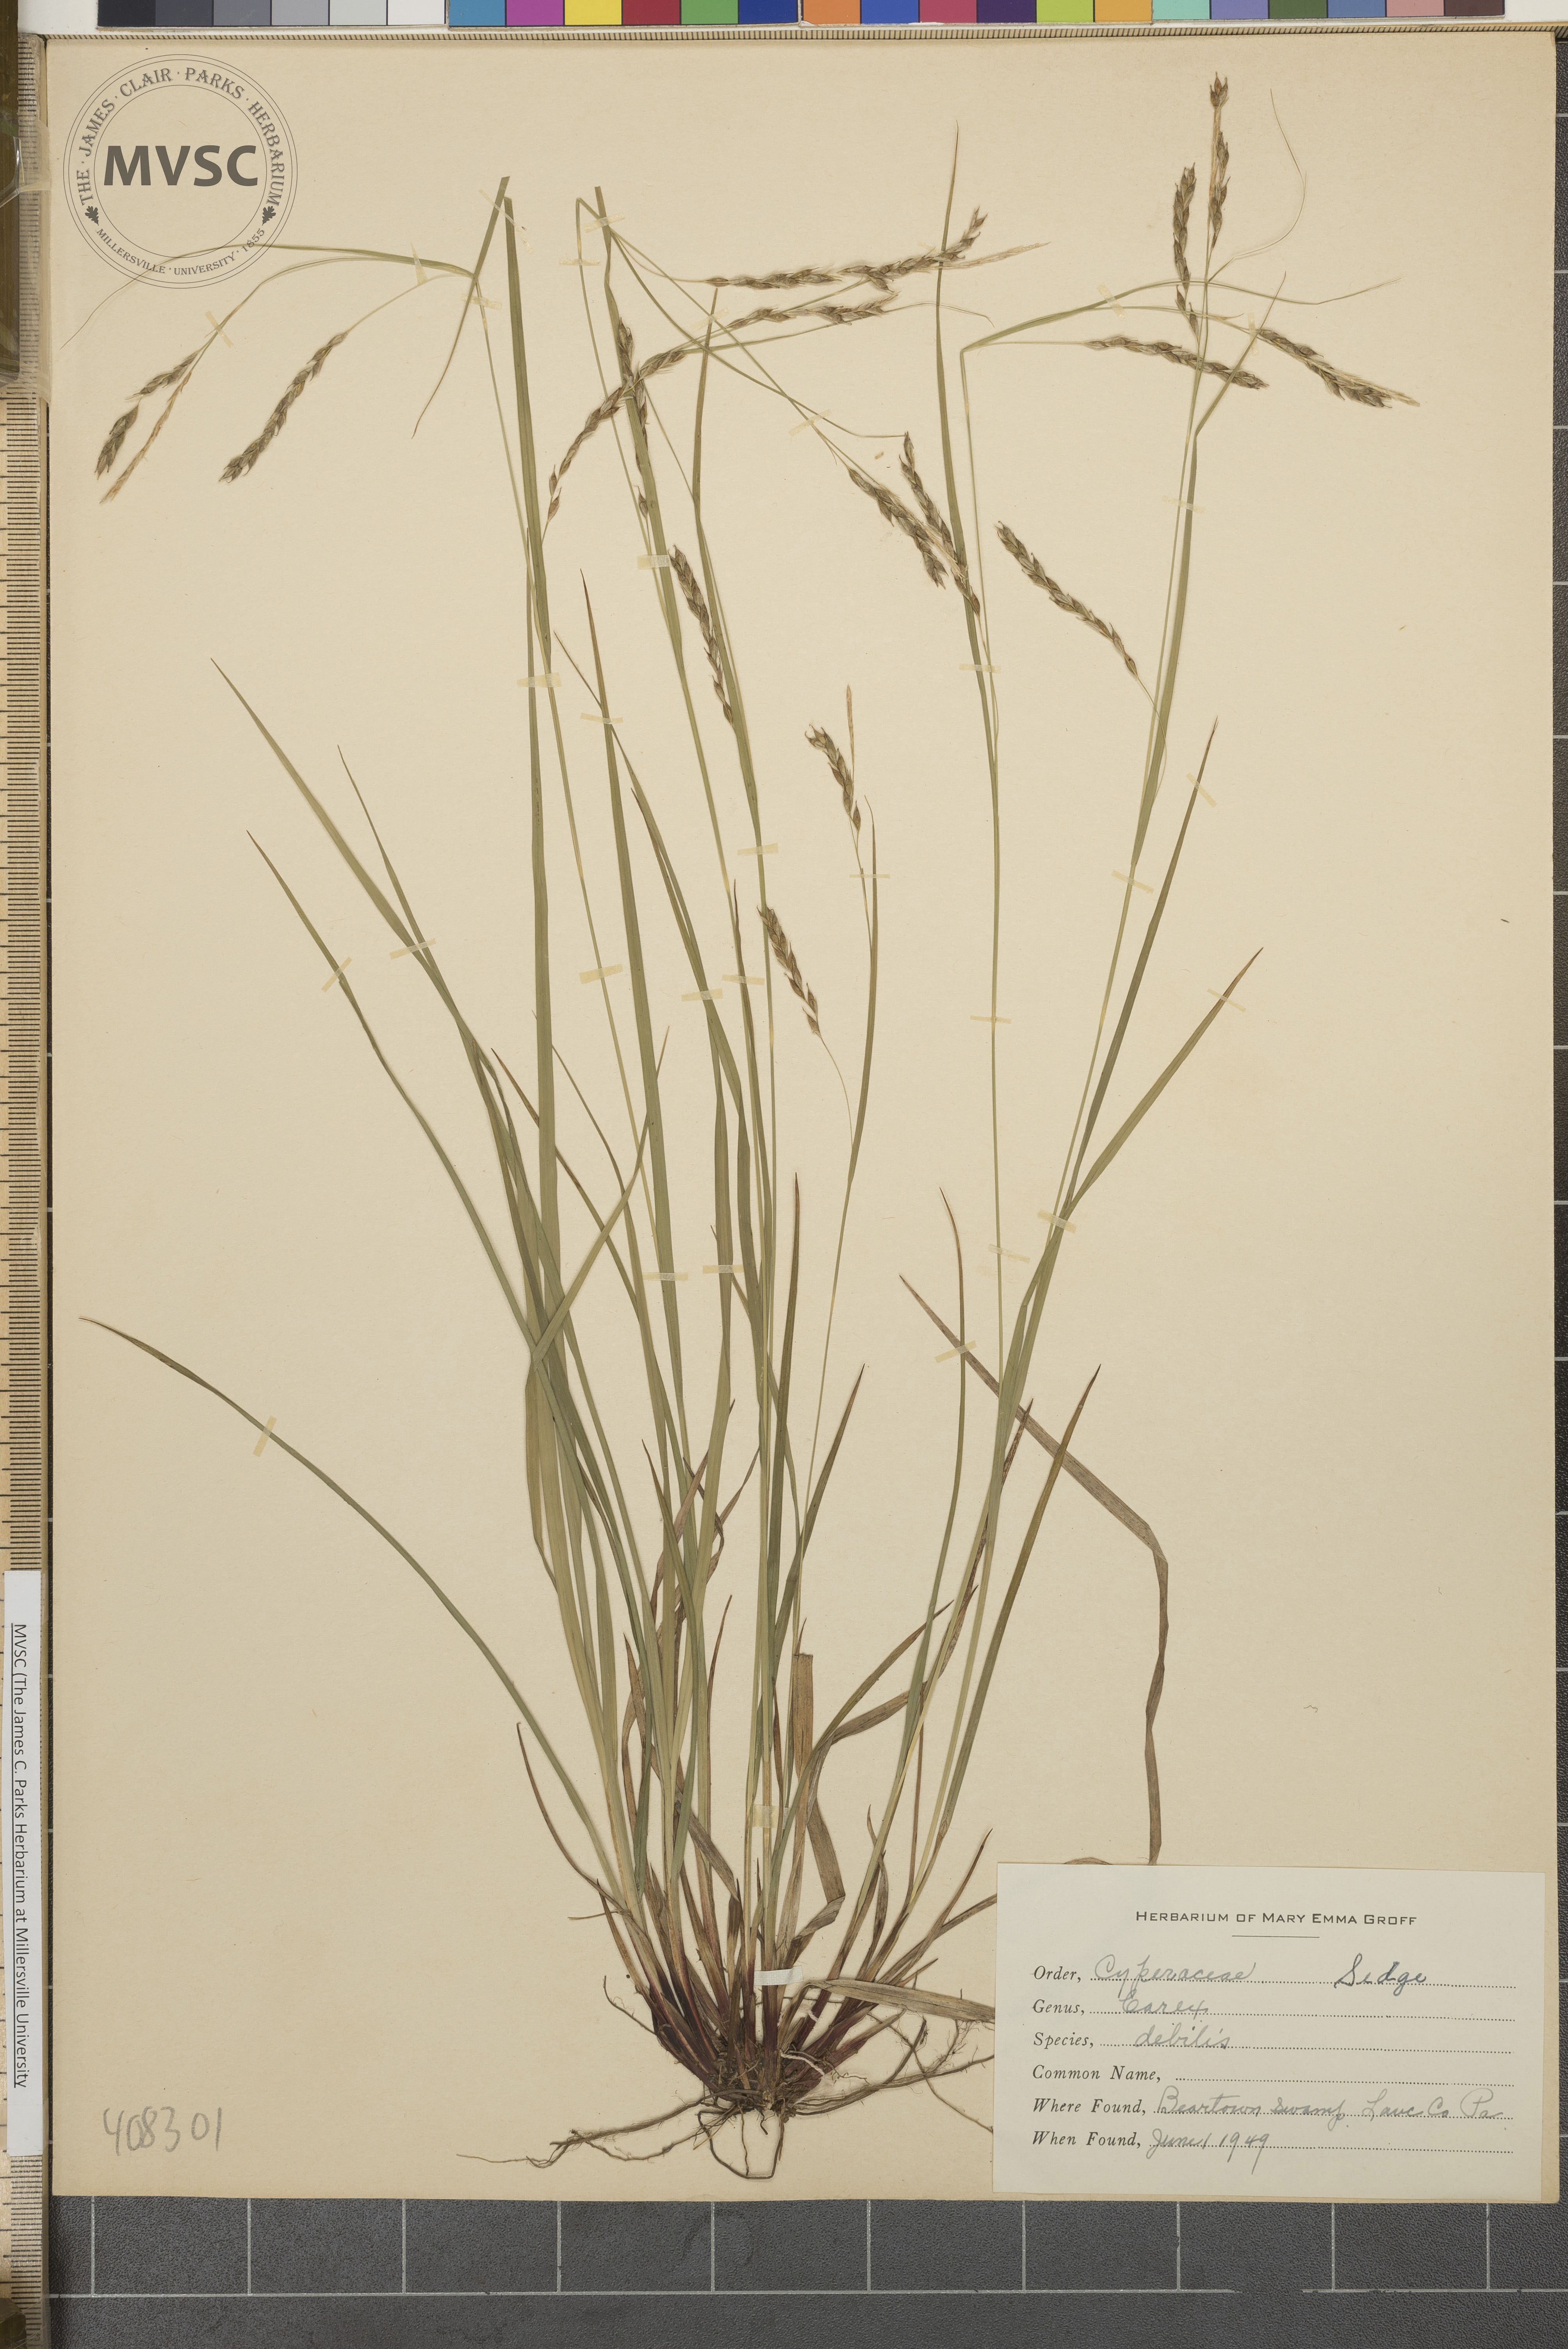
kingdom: Plantae
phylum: Tracheophyta
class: Liliopsida
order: Poales
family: Cyperaceae
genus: Carex
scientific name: Carex debilis
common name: White-edge sedge
